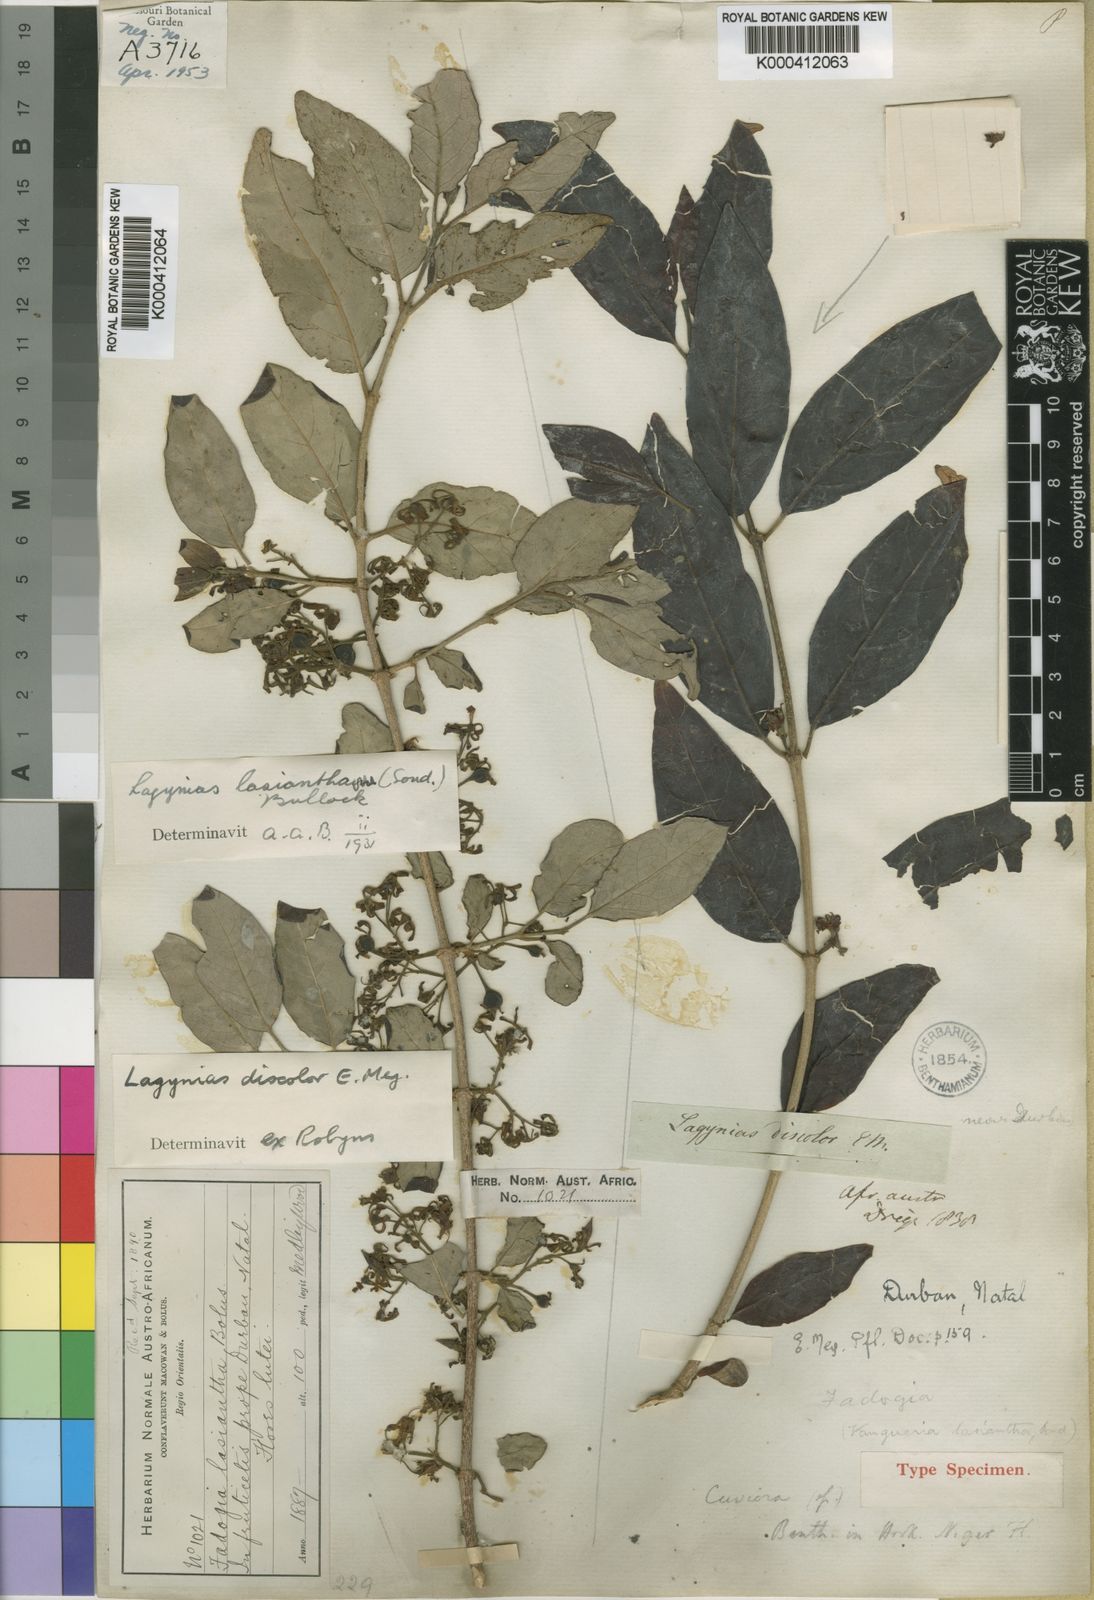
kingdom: Plantae
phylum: Tracheophyta
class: Magnoliopsida
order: Gentianales
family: Rubiaceae
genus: Vangueria
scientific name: Vangueria lasiantha
